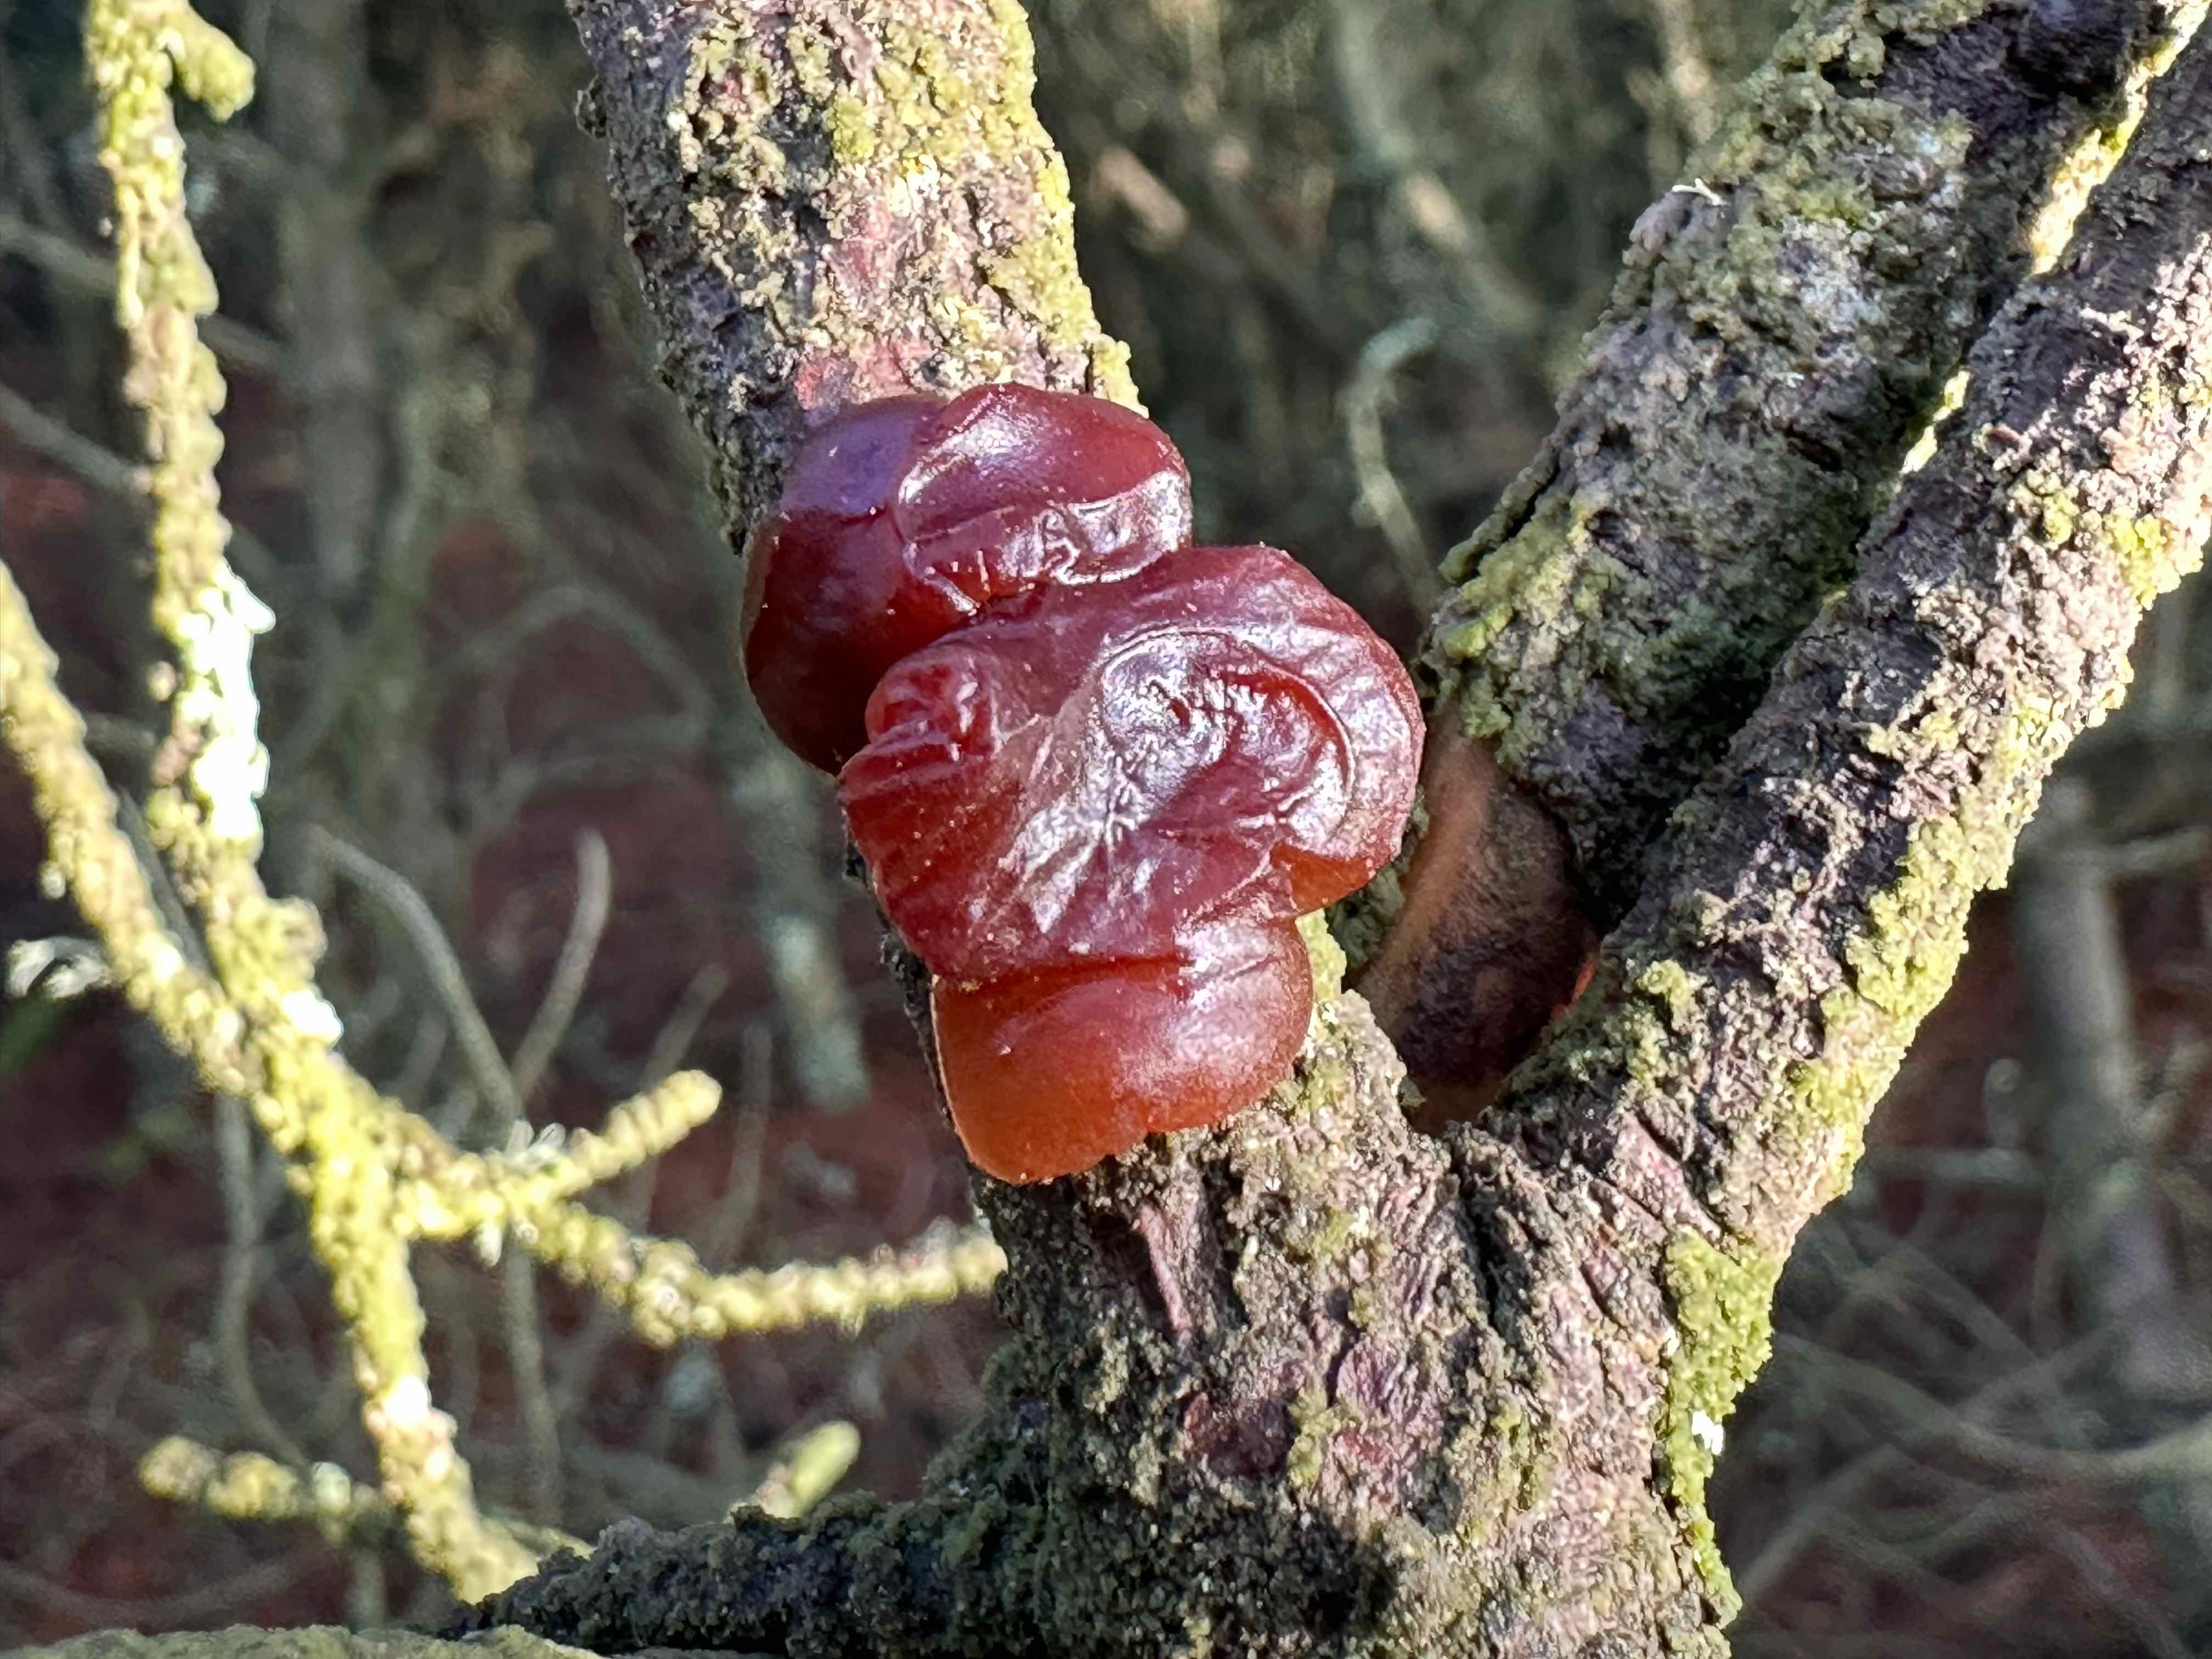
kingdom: Fungi
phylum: Basidiomycota
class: Agaricomycetes
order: Auriculariales
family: Auriculariaceae
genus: Exidia
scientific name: Exidia saccharina
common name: kandis-bævretop
